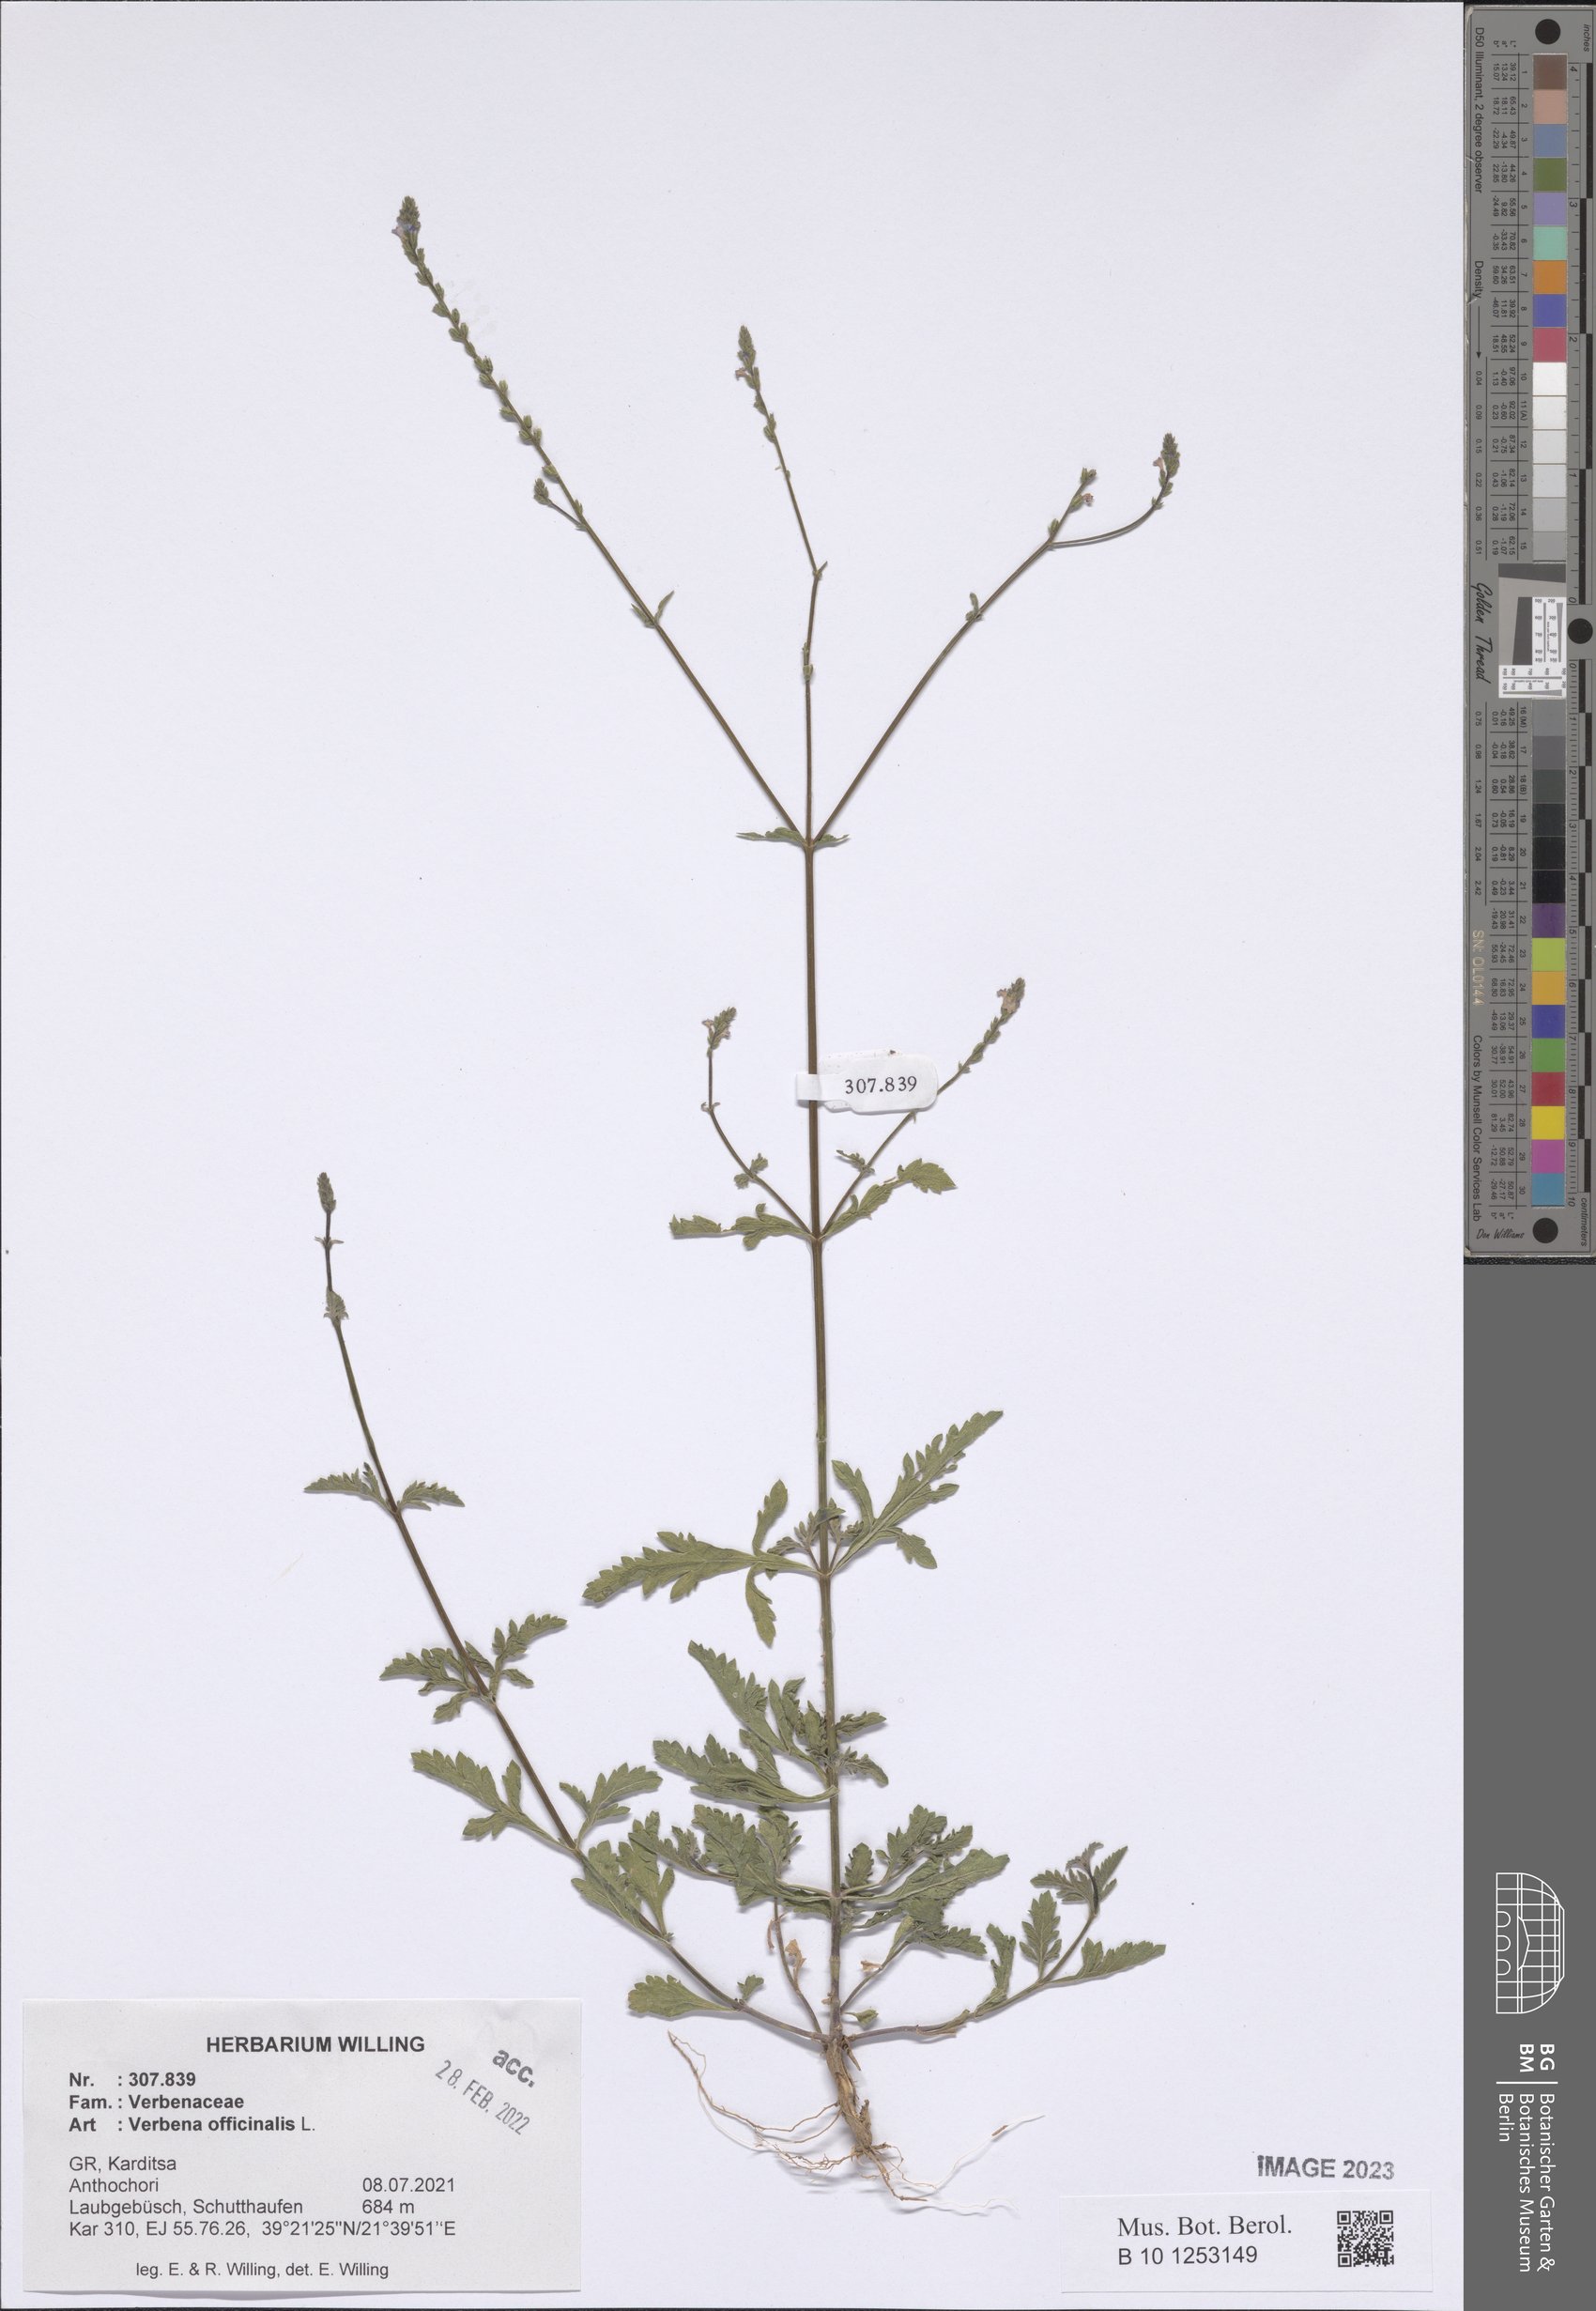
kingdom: Plantae
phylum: Tracheophyta
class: Magnoliopsida
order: Lamiales
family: Verbenaceae
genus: Verbena
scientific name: Verbena officinalis
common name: Vervain
